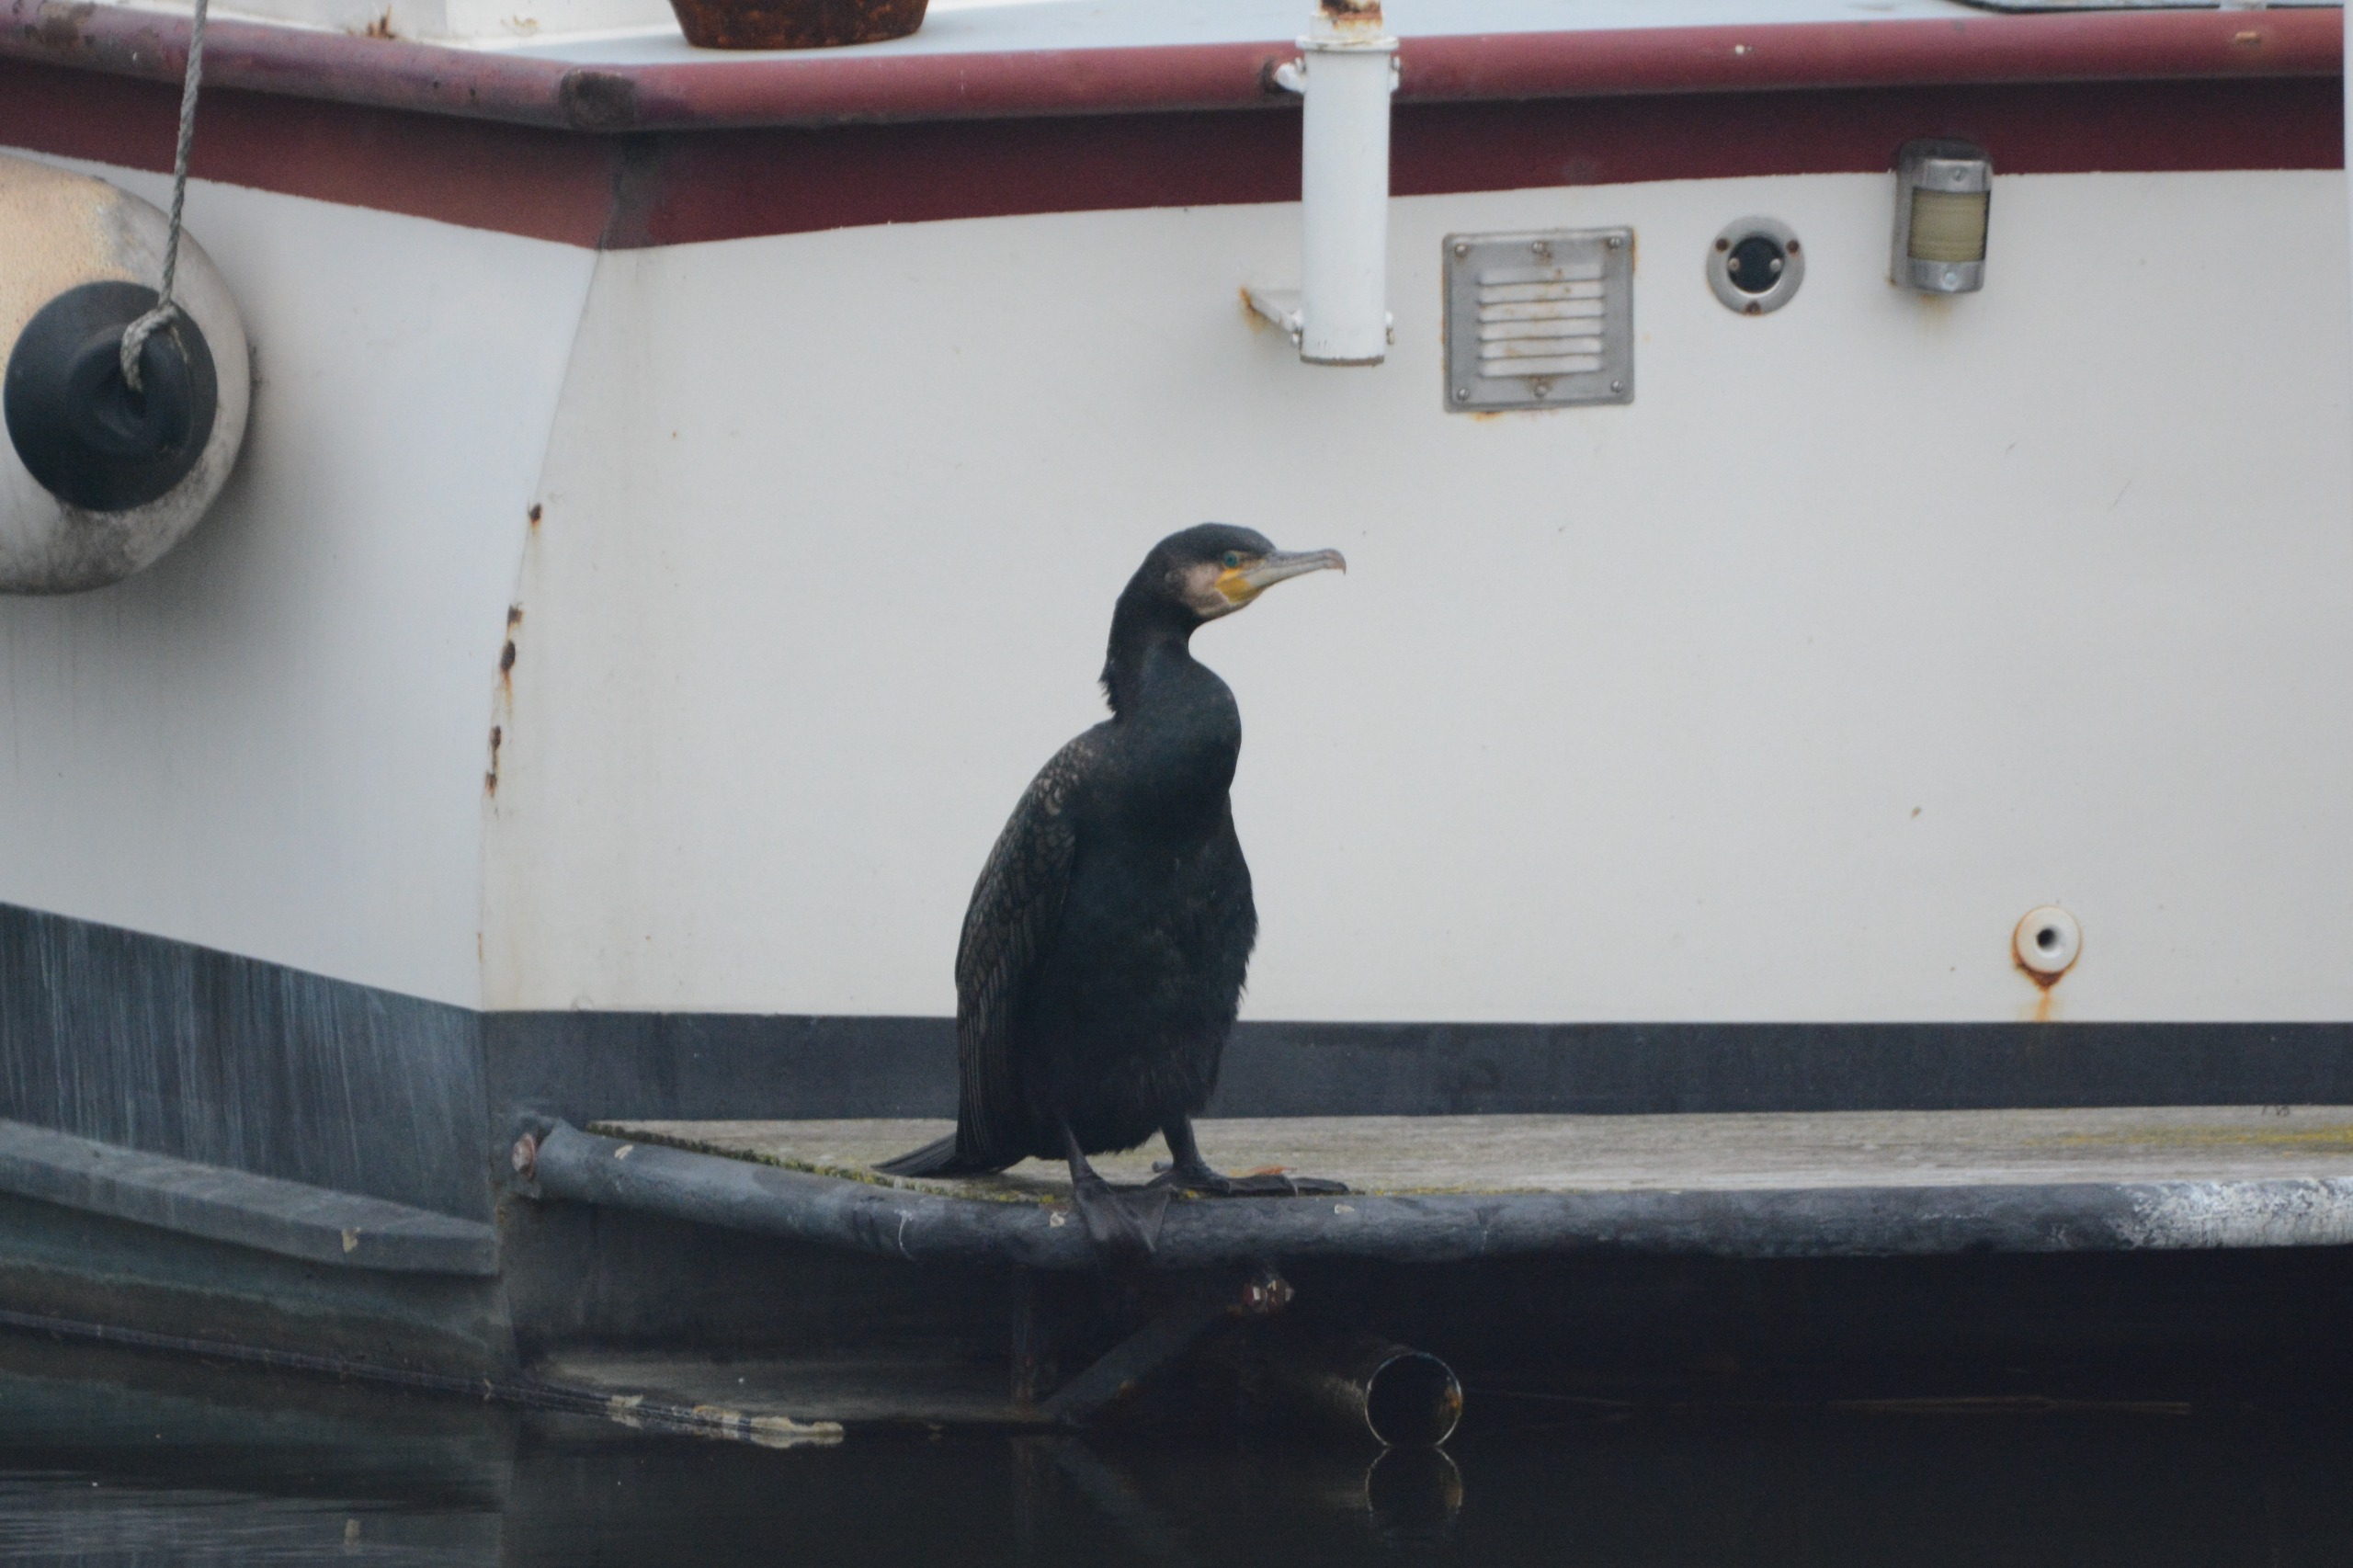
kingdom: Animalia
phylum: Chordata
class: Aves
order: Suliformes
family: Phalacrocoracidae
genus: Phalacrocorax
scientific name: Phalacrocorax carbo
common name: Skarv
